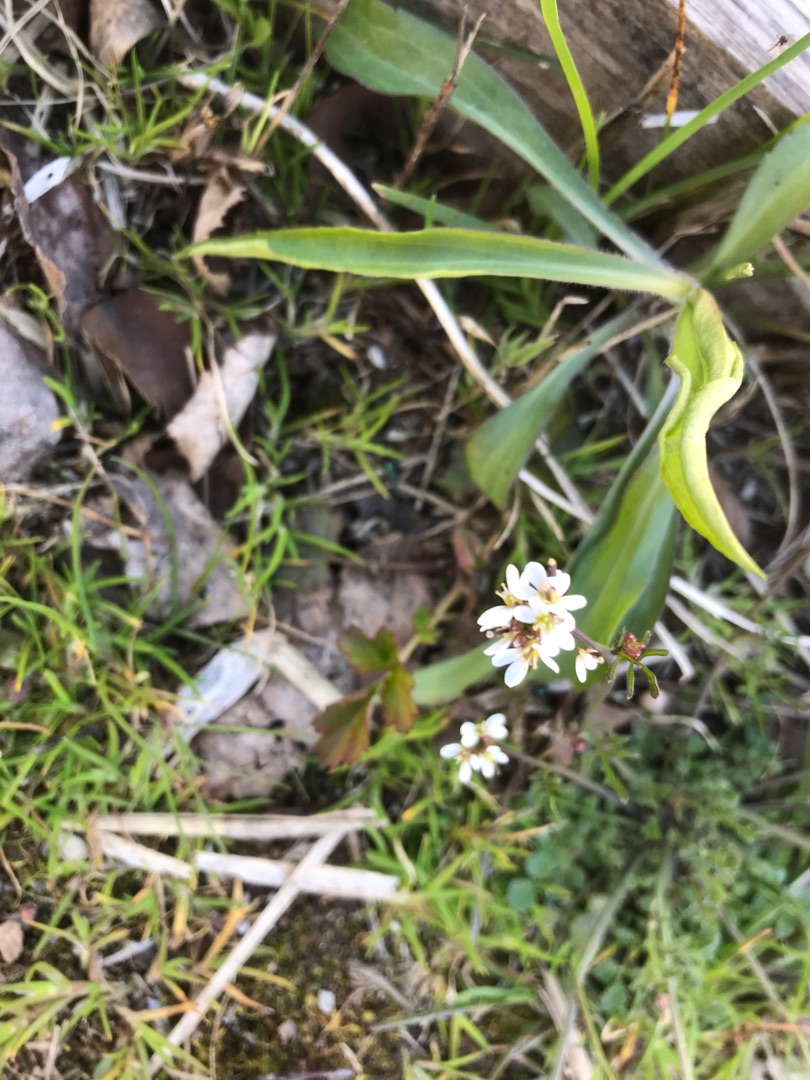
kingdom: Plantae
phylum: Tracheophyta
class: Magnoliopsida
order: Brassicales
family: Brassicaceae
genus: Cardamine
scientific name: Cardamine hirsuta
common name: Roset-springklap
